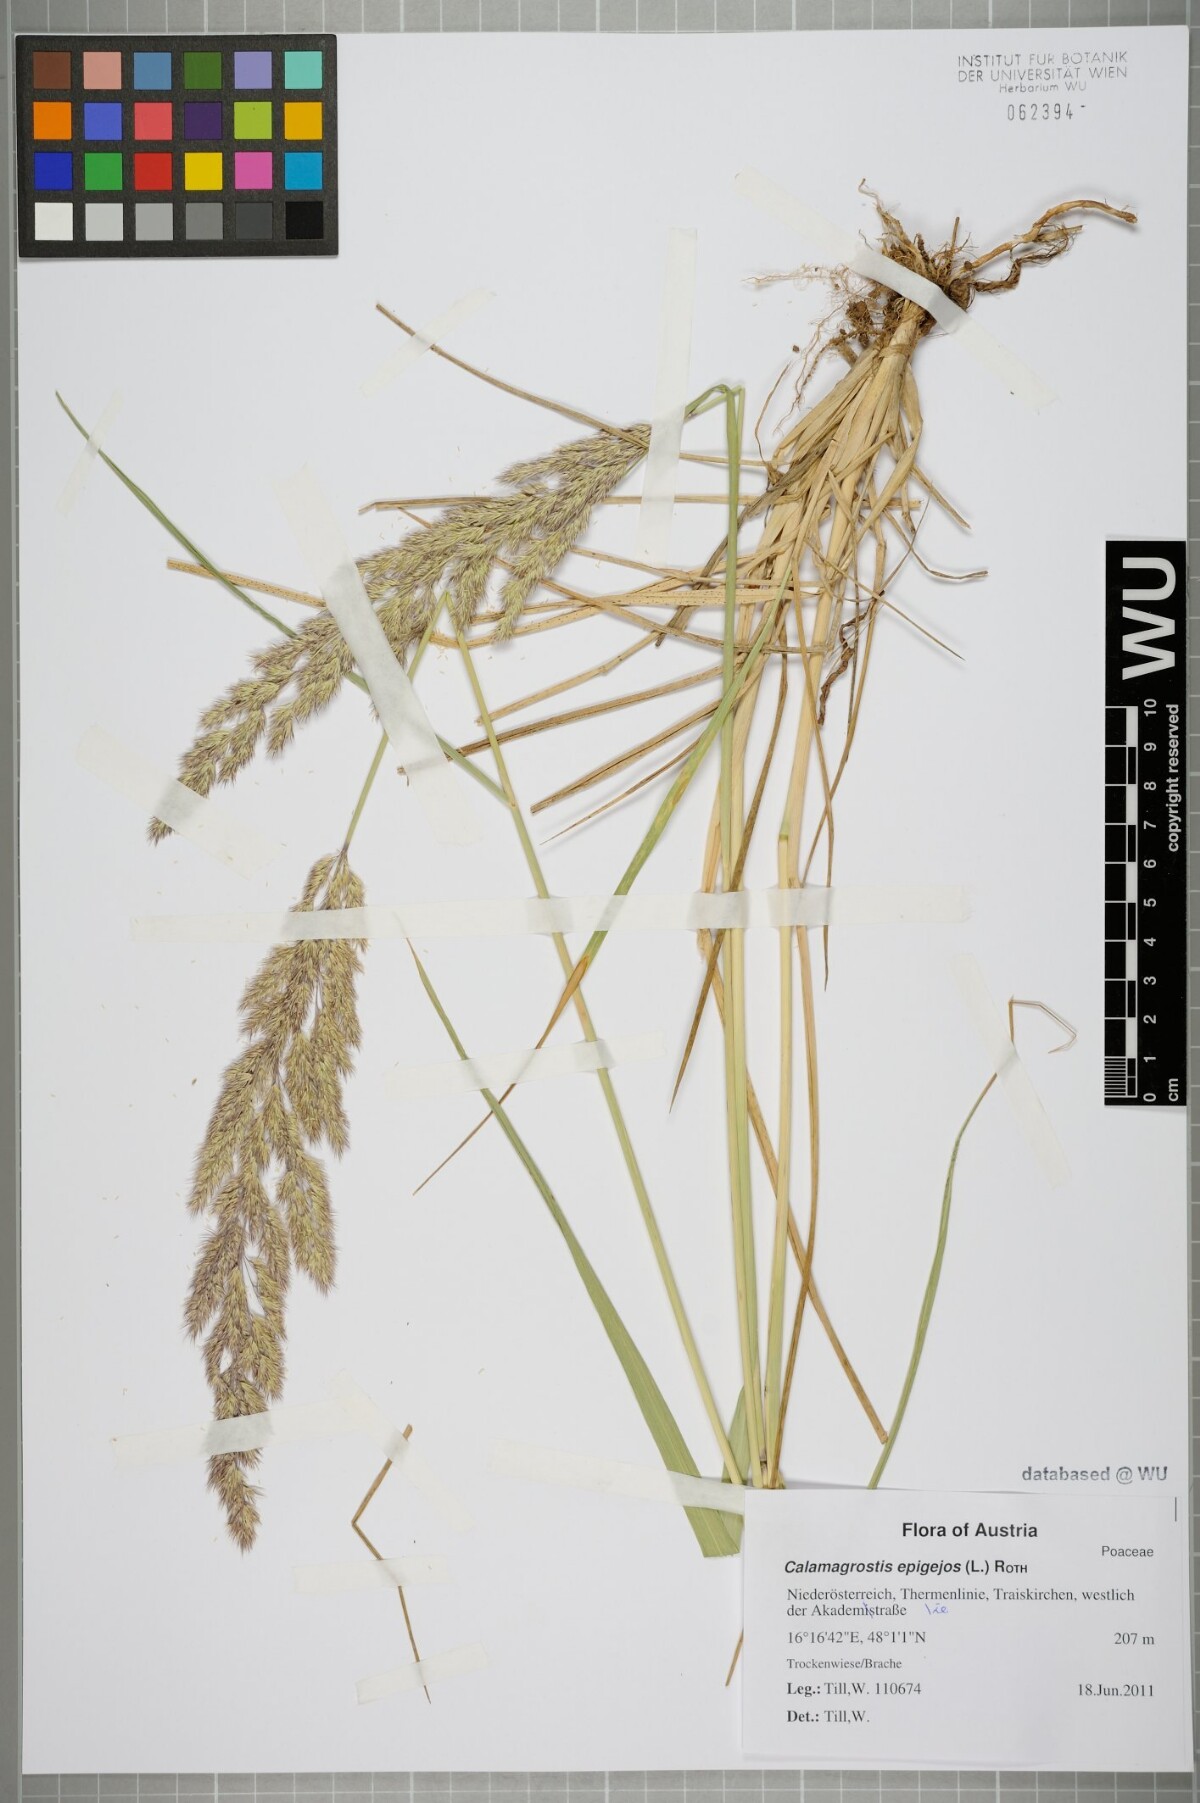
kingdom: Plantae
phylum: Tracheophyta
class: Liliopsida
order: Poales
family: Poaceae
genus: Calamagrostis
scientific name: Calamagrostis epigejos
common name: Wood small-reed
